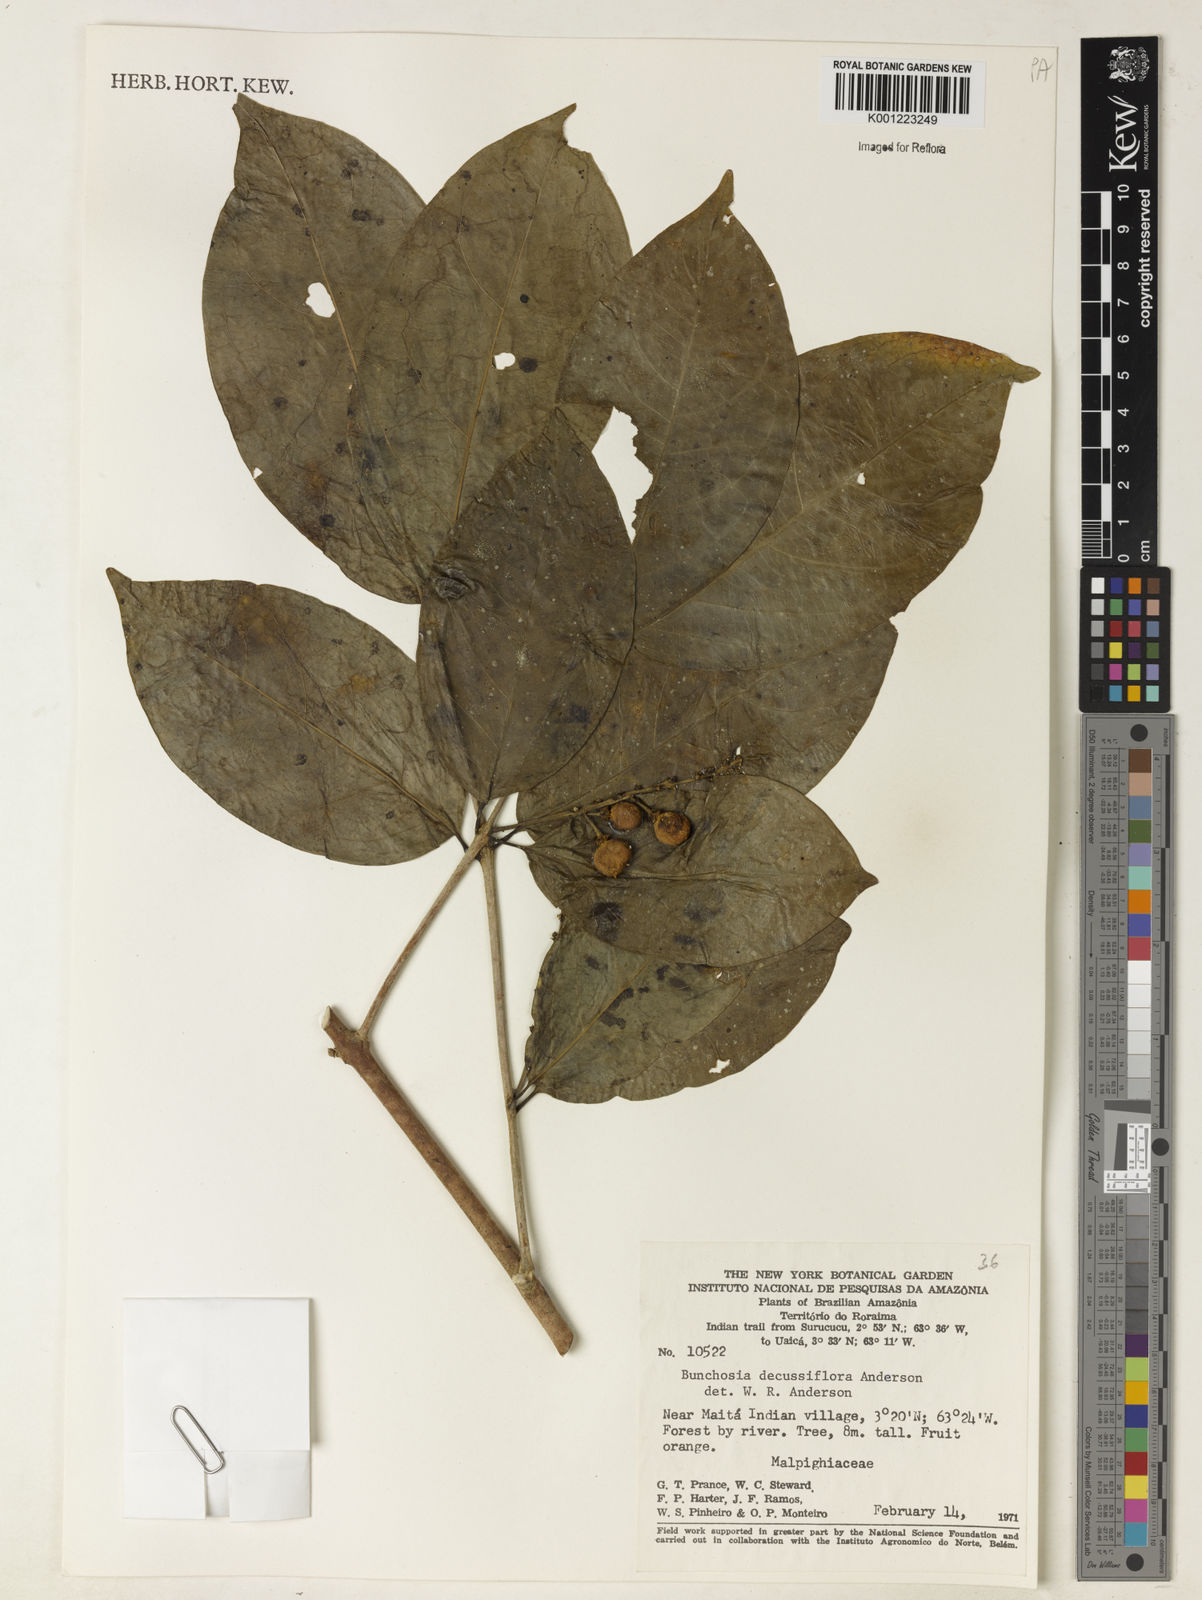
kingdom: Plantae
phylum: Tracheophyta
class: Magnoliopsida
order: Malpighiales
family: Malpighiaceae
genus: Bunchosia
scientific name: Bunchosia decussiflora
